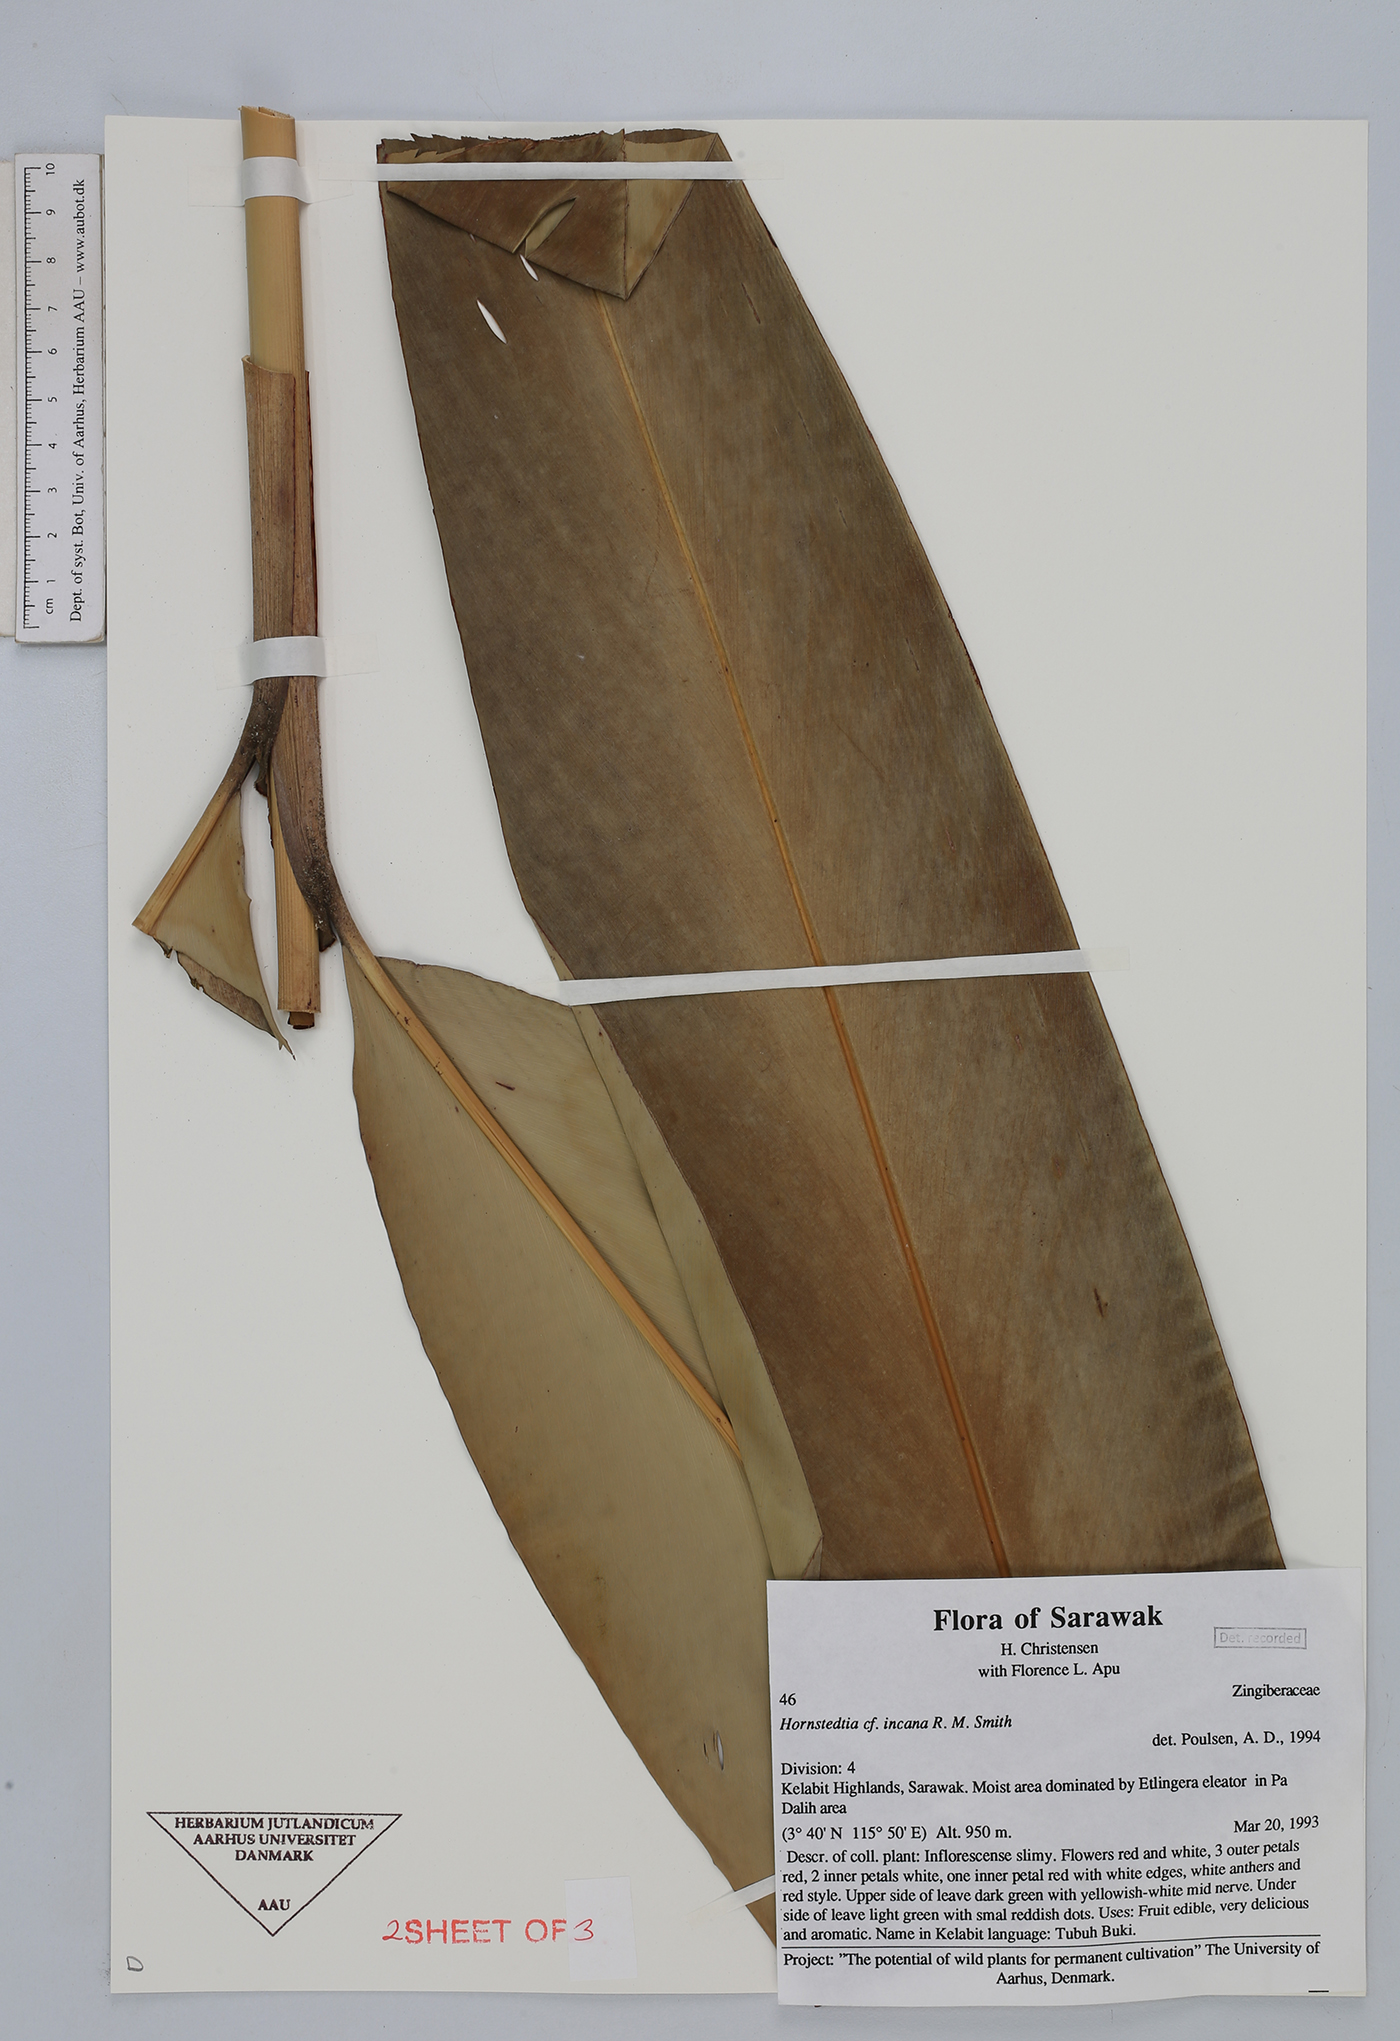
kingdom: Plantae
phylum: Tracheophyta
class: Liliopsida
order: Zingiberales
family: Zingiberaceae
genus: Hornstedtia
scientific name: Hornstedtia incana
